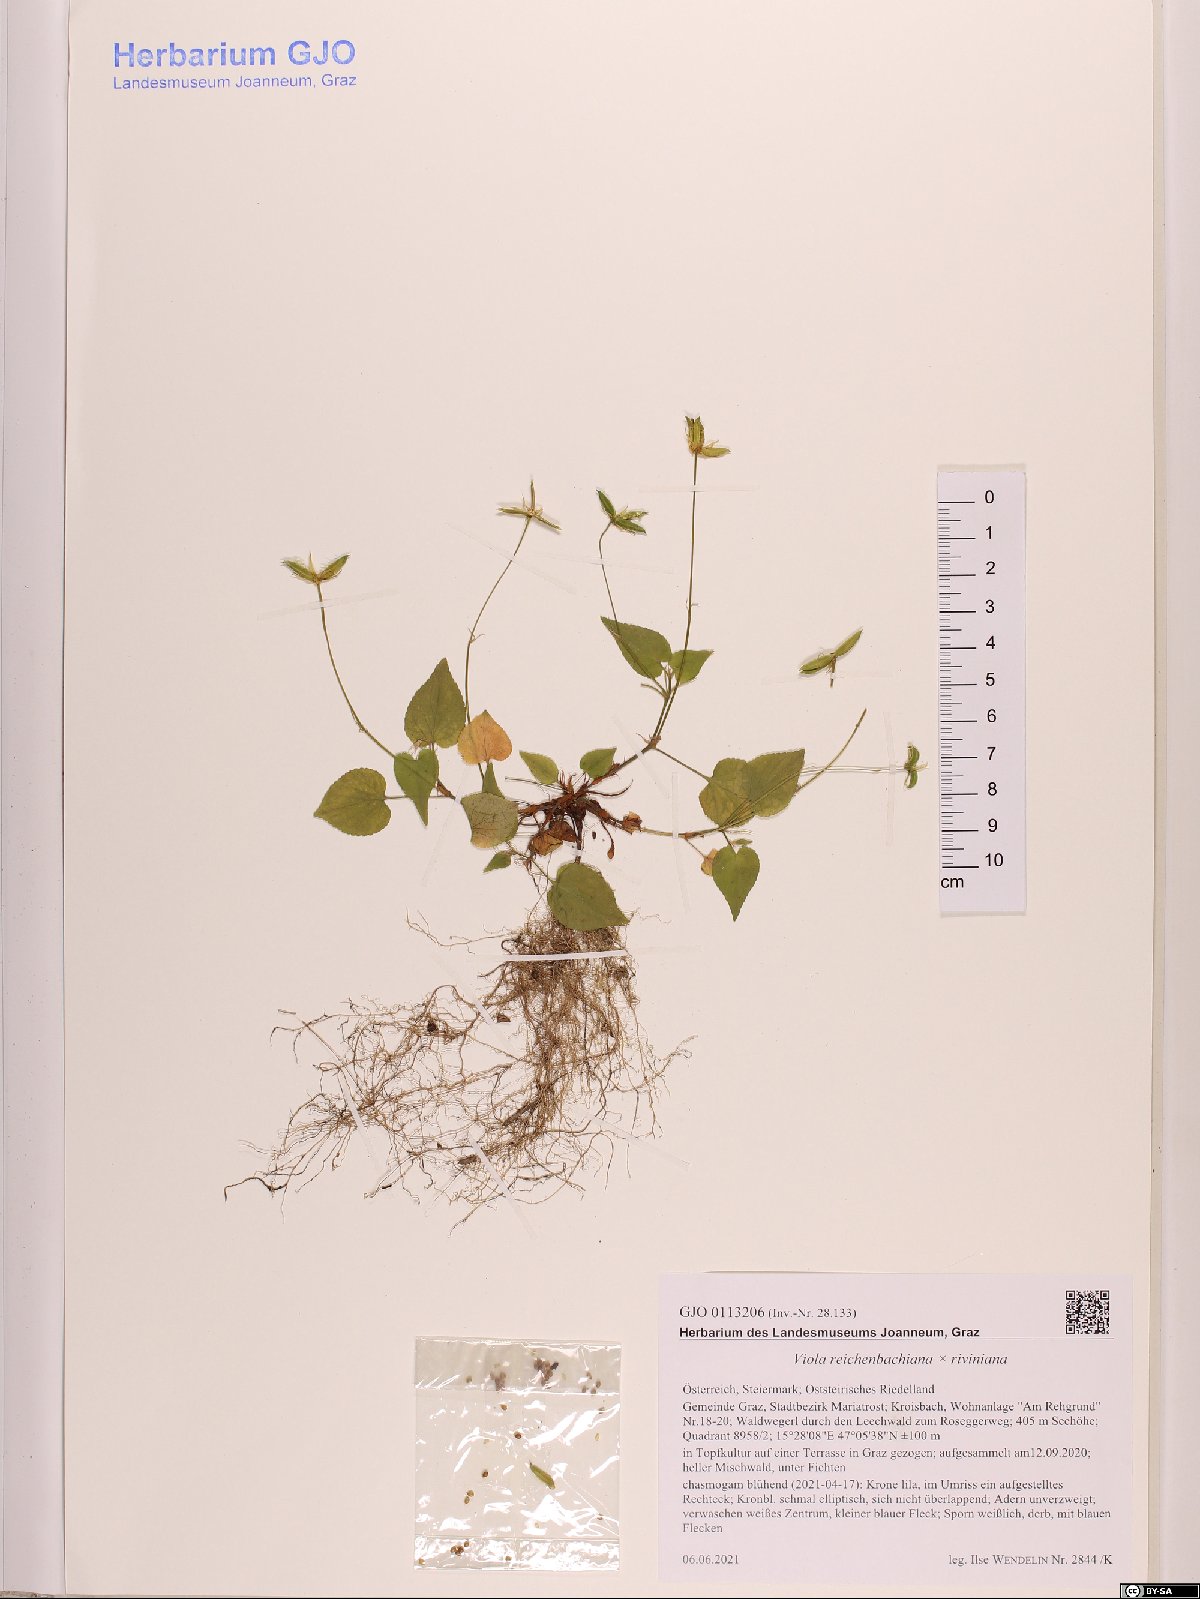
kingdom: Plantae
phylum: Tracheophyta
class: Magnoliopsida
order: Malpighiales
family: Violaceae
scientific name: Violaceae
